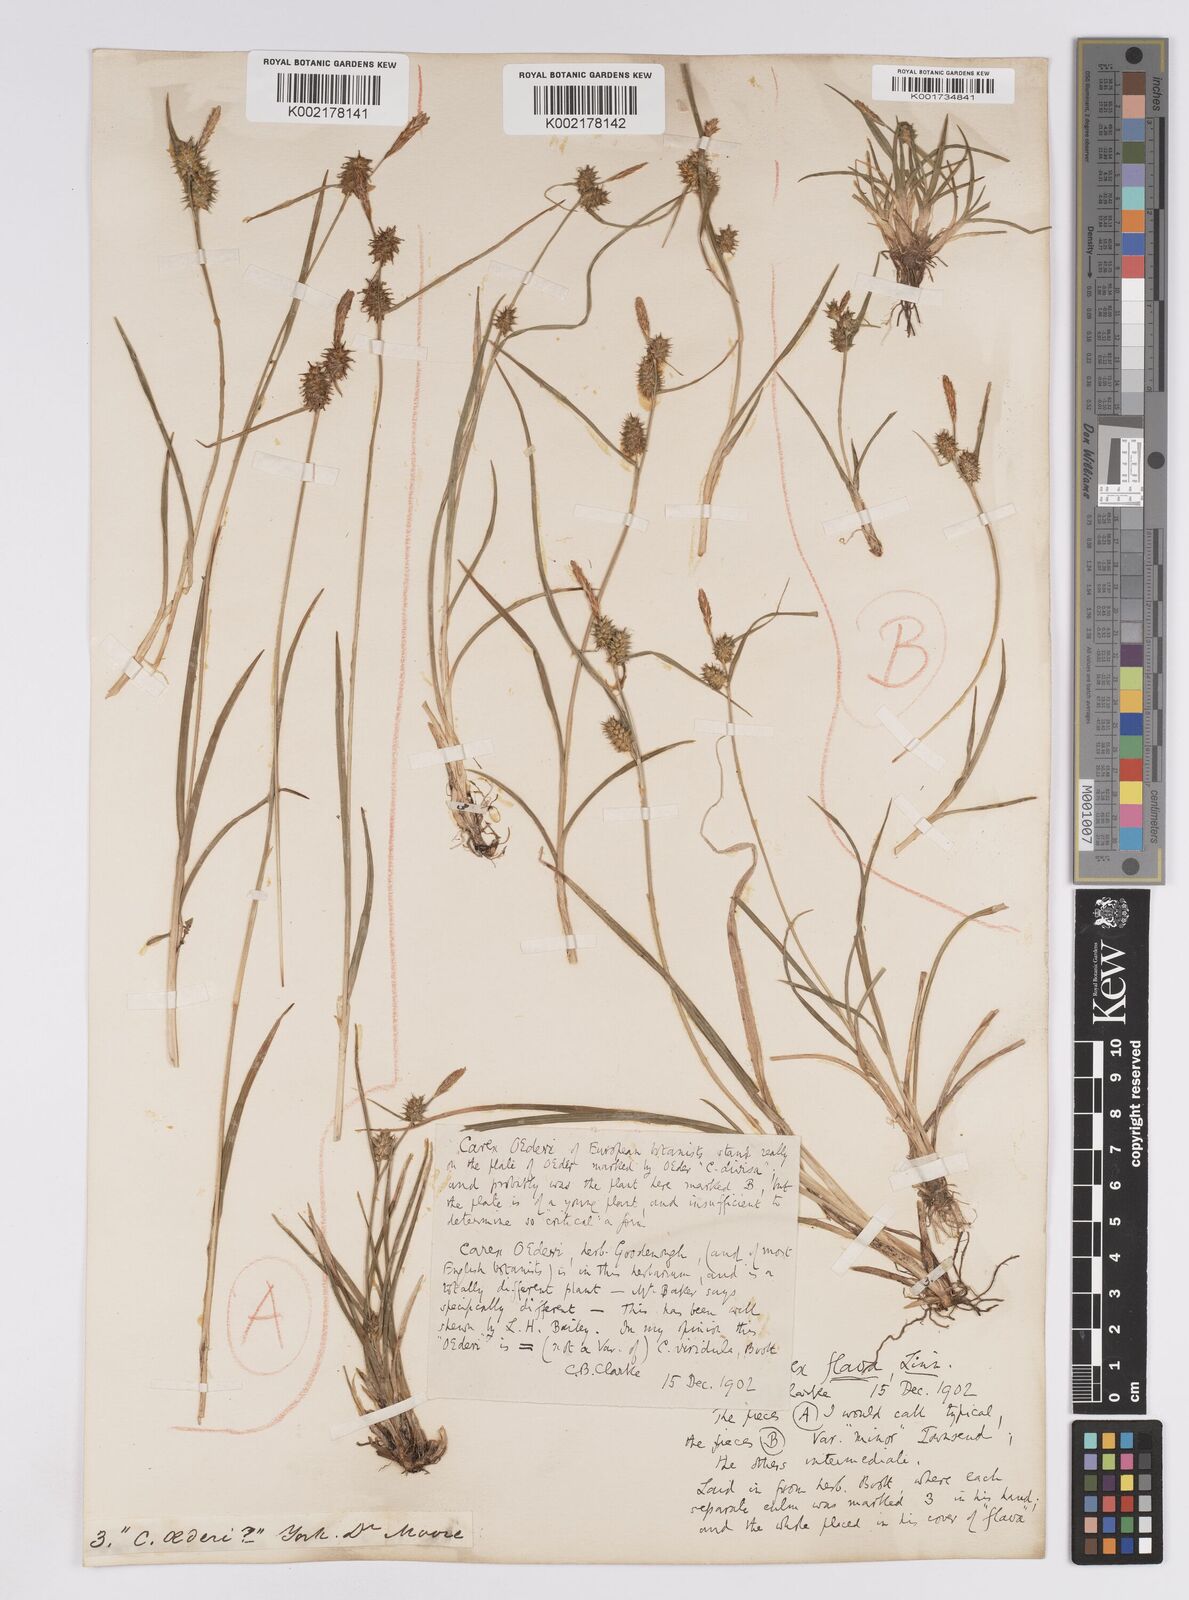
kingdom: Plantae
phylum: Tracheophyta
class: Liliopsida
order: Poales
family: Cyperaceae
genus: Carex
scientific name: Carex demissa
